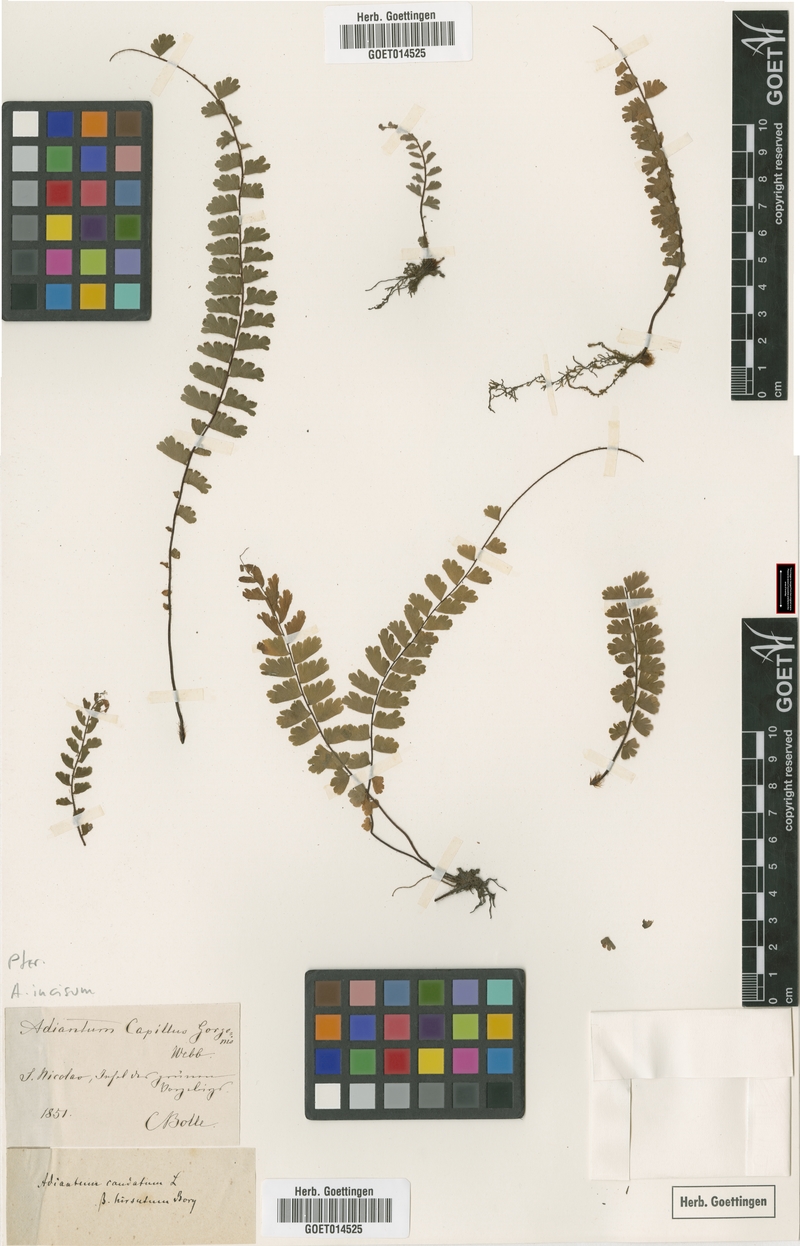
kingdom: Plantae
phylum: Tracheophyta
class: Polypodiopsida
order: Polypodiales
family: Pteridaceae
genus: Adiantum
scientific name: Adiantum incisum
